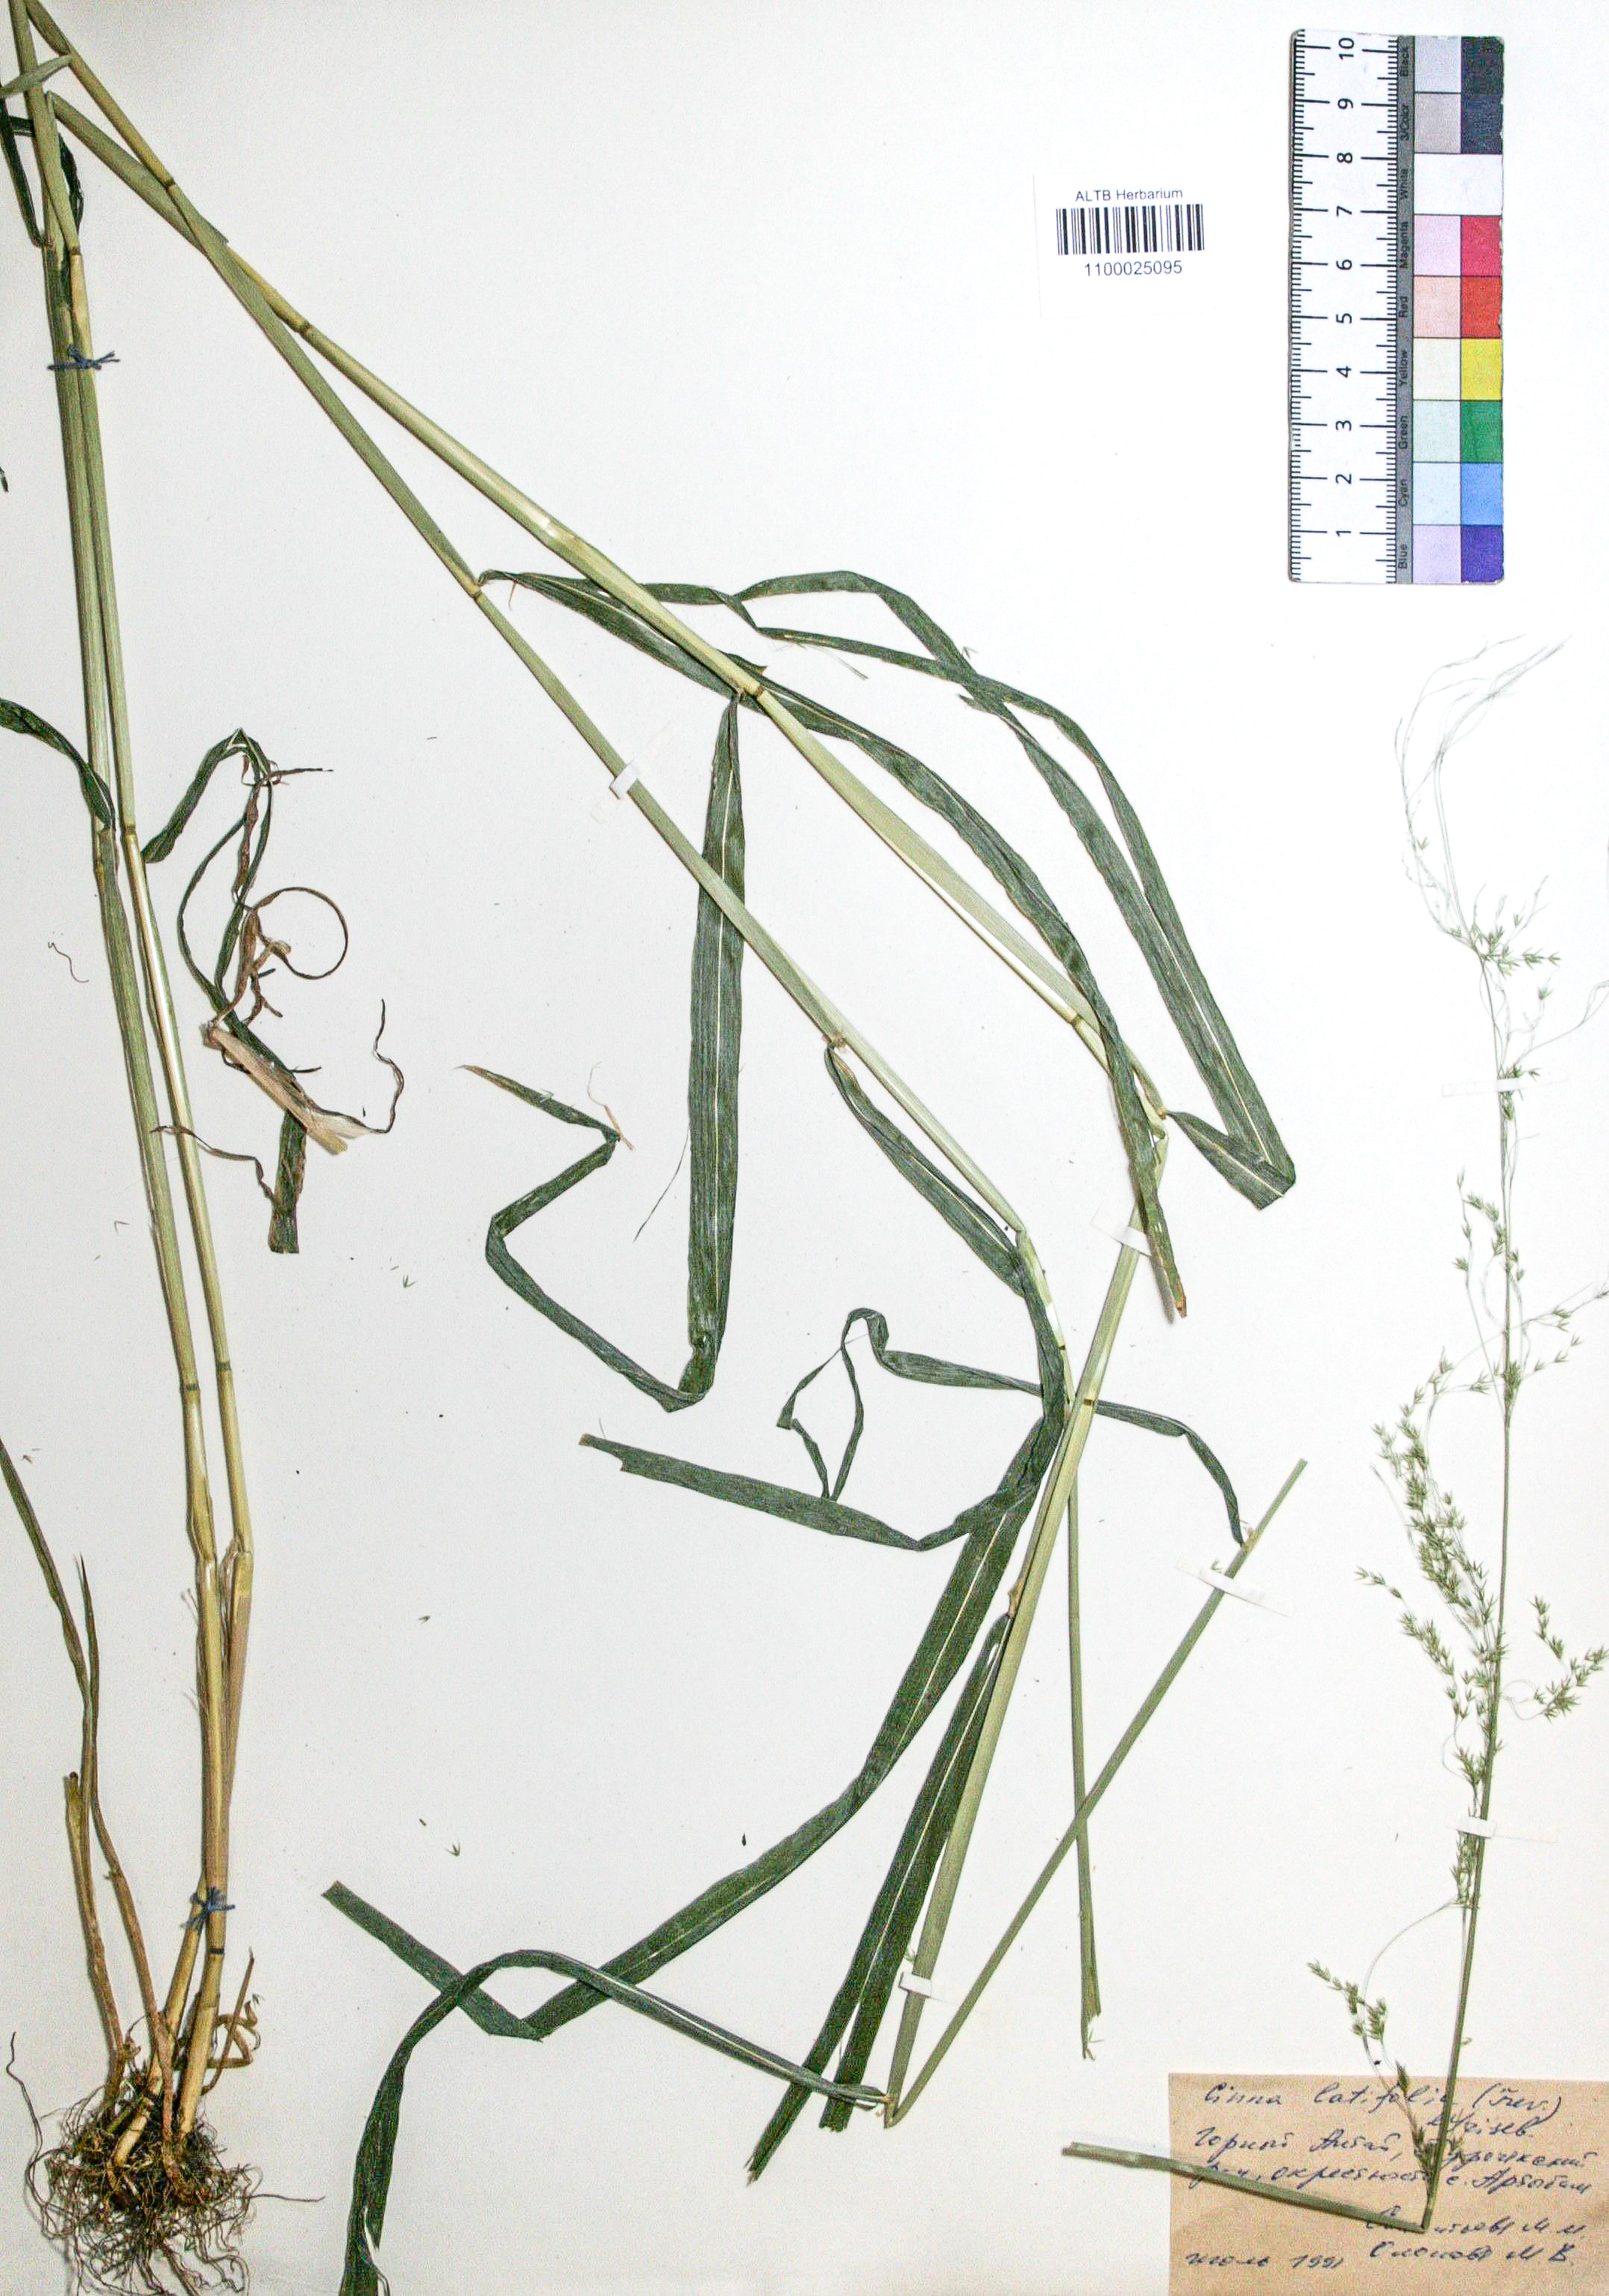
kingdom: Plantae
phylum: Tracheophyta
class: Liliopsida
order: Poales
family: Poaceae
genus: Cinna
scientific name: Cinna latifolia
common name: Drooping woodreed
